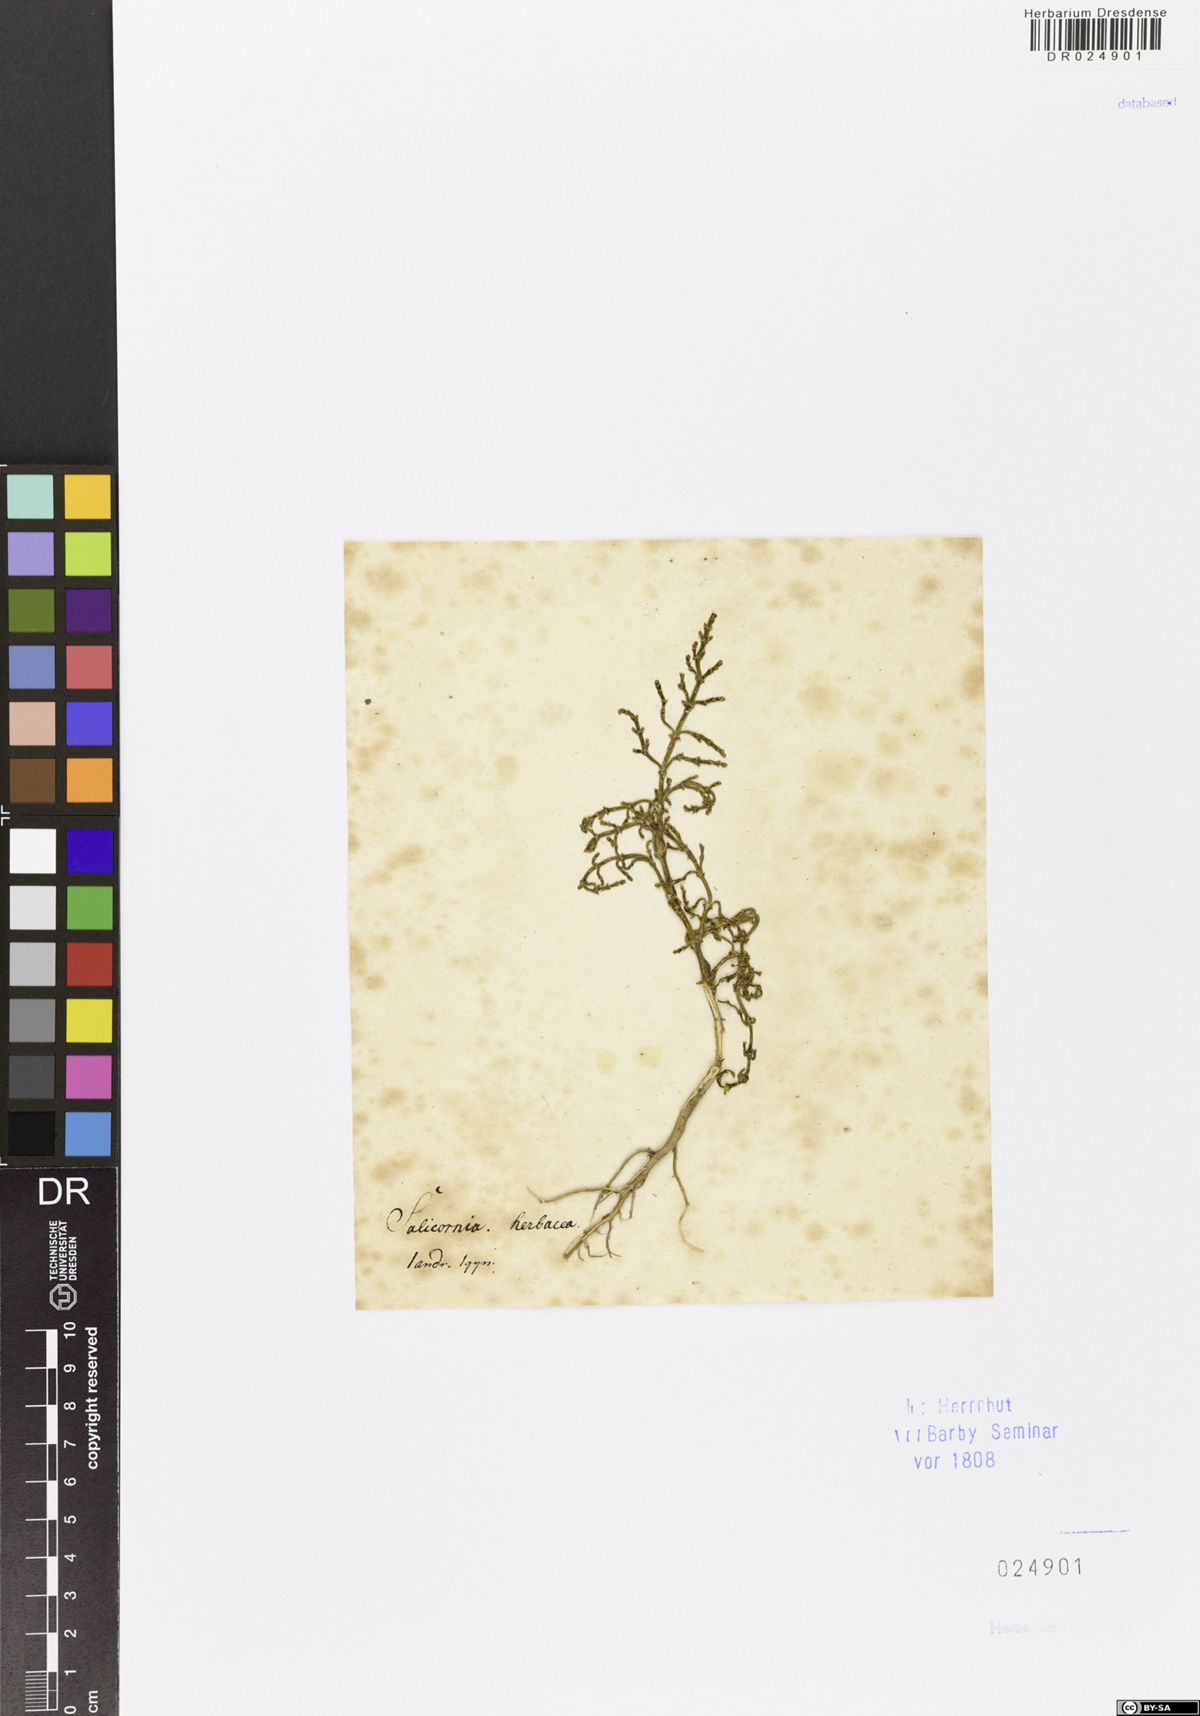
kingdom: Plantae
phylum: Tracheophyta
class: Magnoliopsida
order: Caryophyllales
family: Amaranthaceae
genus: Salicornia
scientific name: Salicornia europaea
